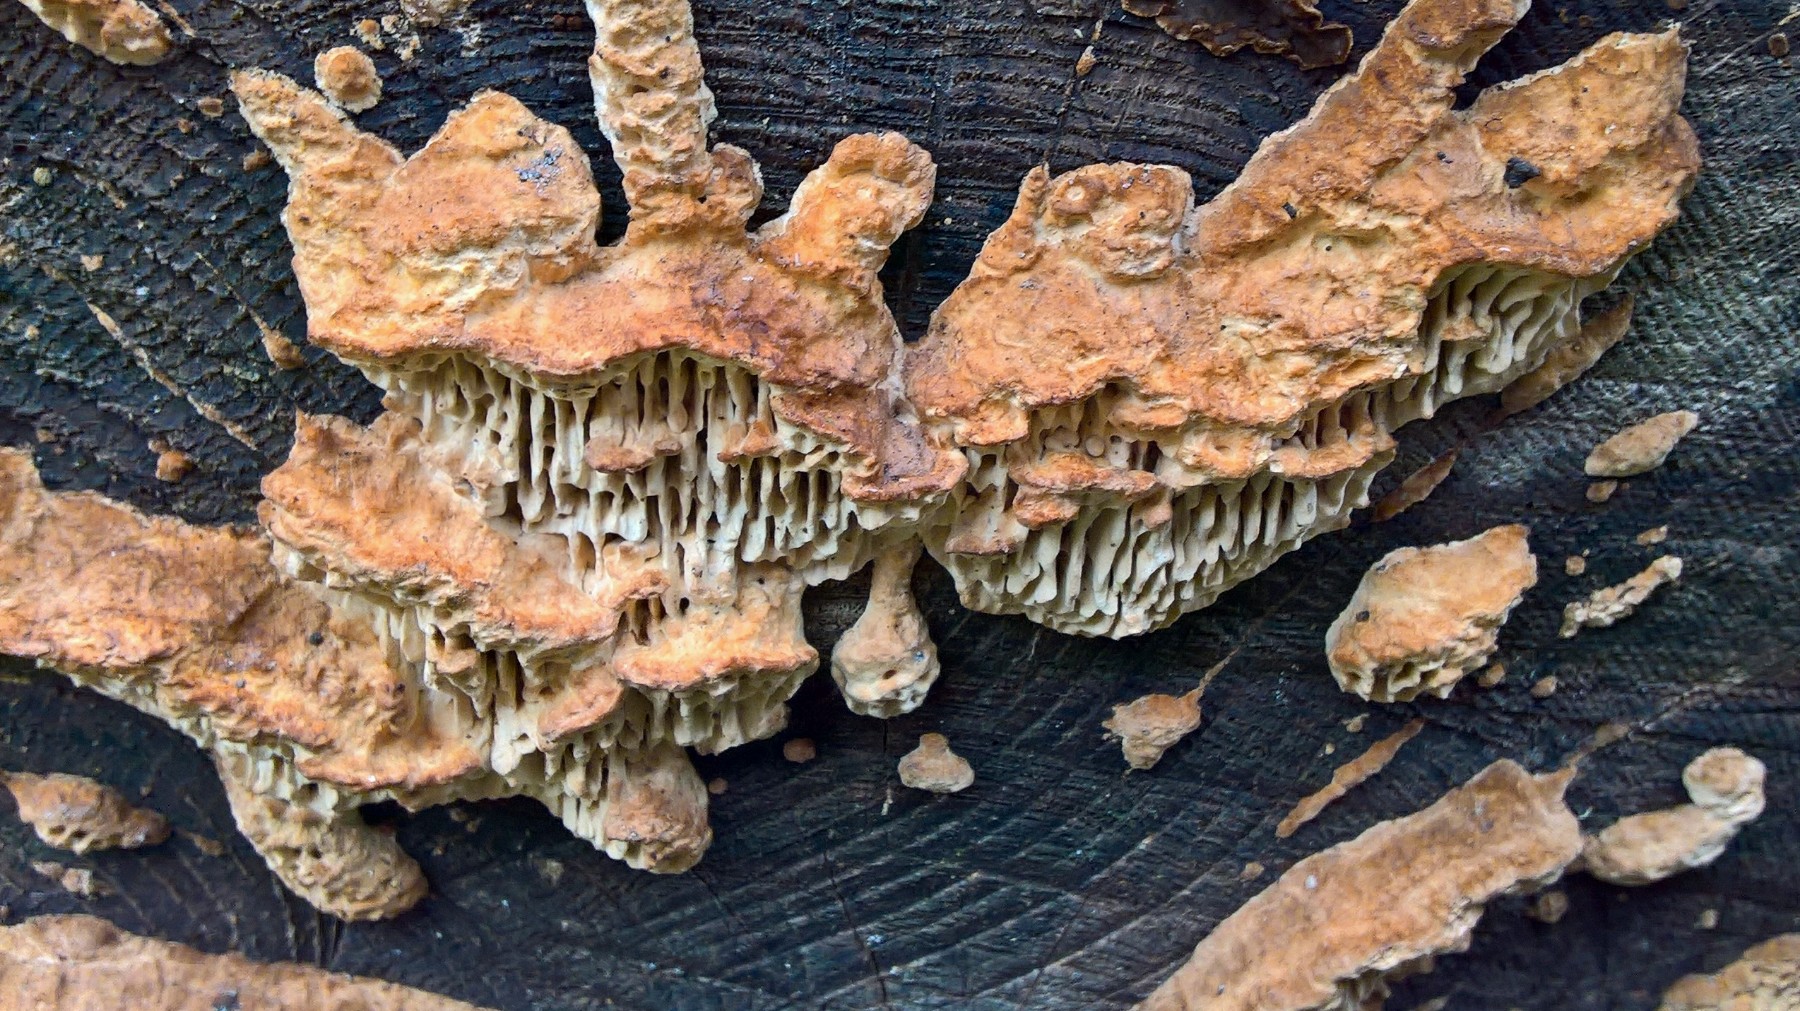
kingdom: Fungi
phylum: Basidiomycota
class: Agaricomycetes
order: Polyporales
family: Fomitopsidaceae
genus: Daedalea
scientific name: Daedalea quercina
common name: ege-labyrintsvamp
